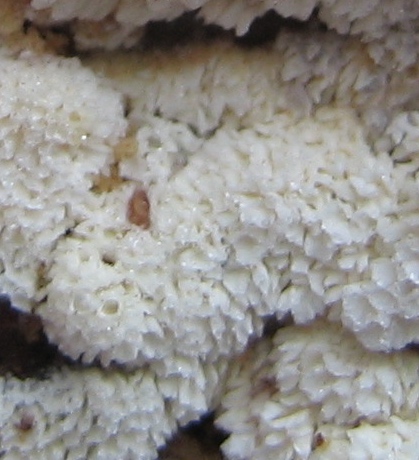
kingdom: Fungi
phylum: Basidiomycota
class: Agaricomycetes
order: Polyporales
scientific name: Polyporales
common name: poresvampordenen
